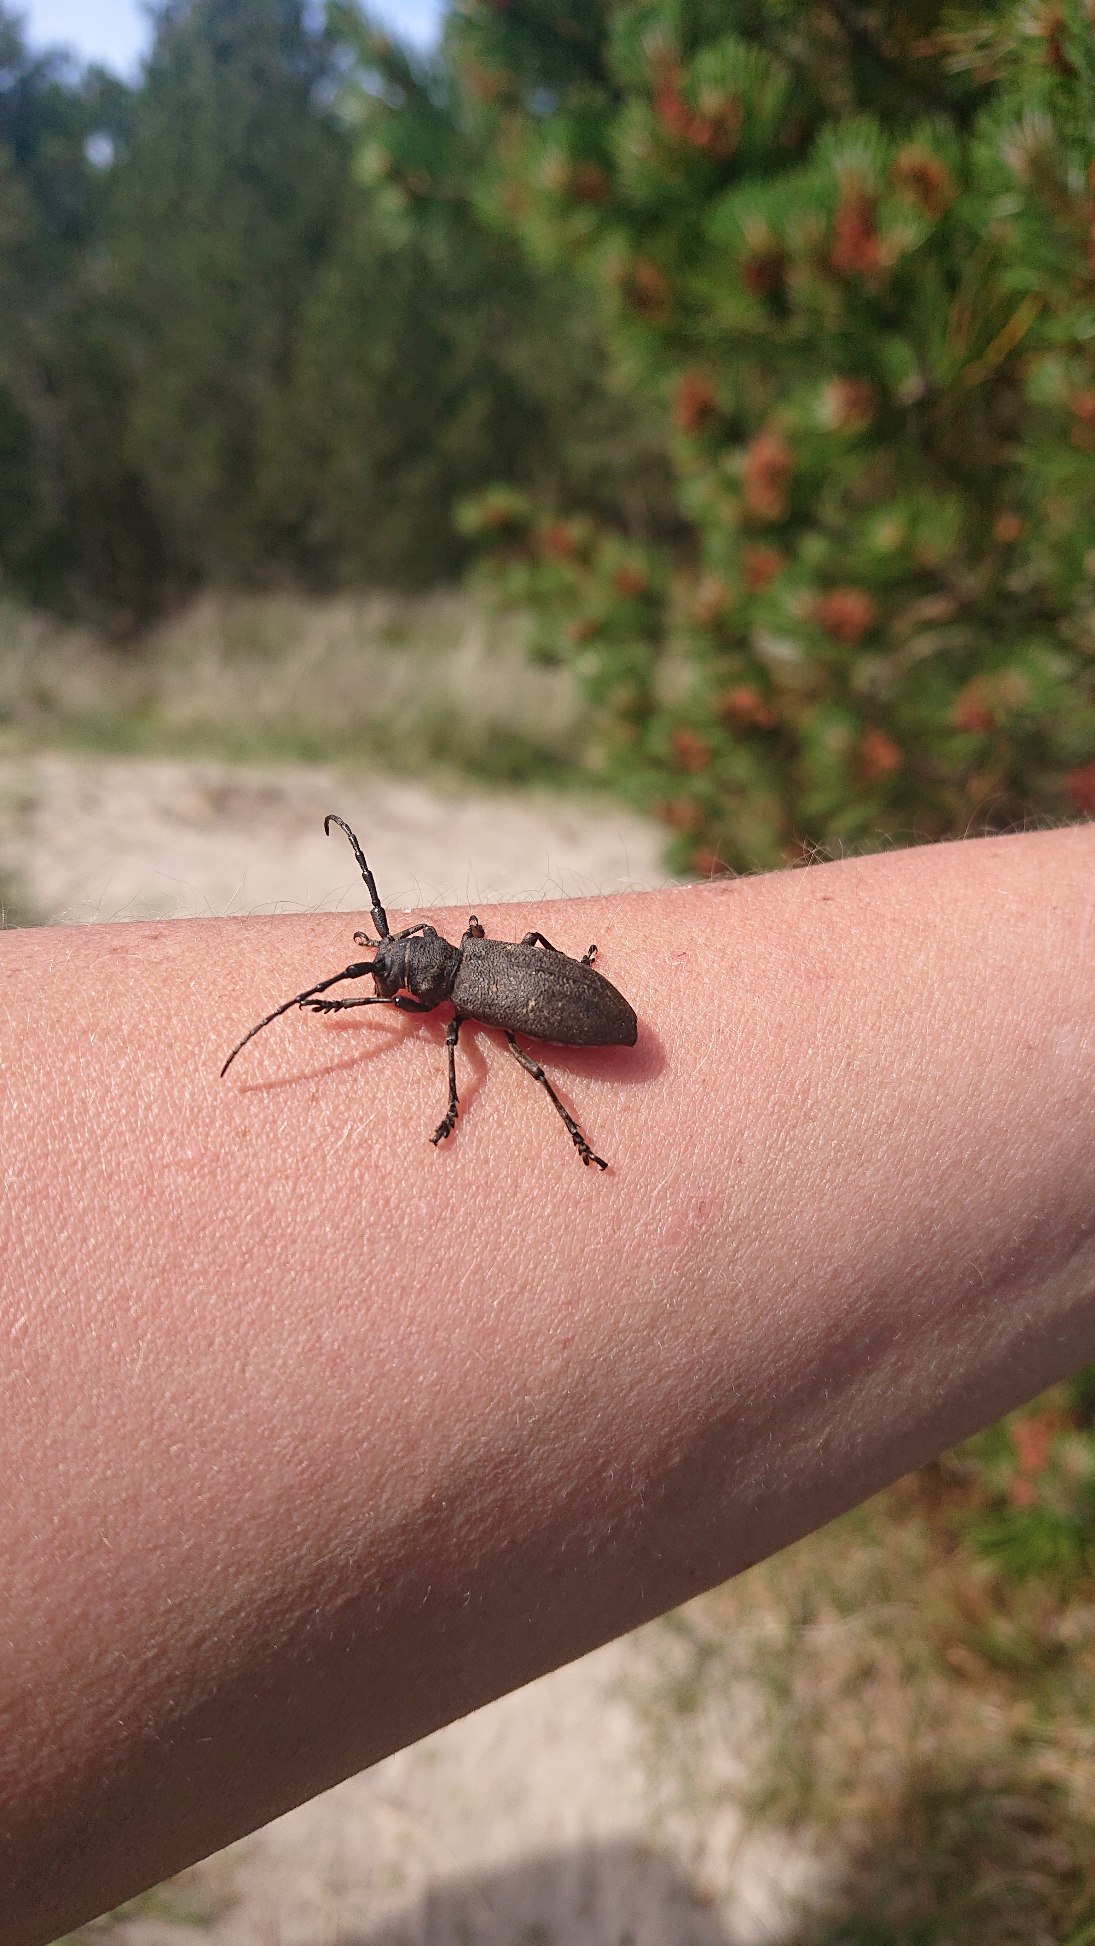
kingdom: Animalia
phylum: Arthropoda
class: Insecta
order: Coleoptera
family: Cerambycidae
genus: Lamia
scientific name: Lamia textor
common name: Væver
